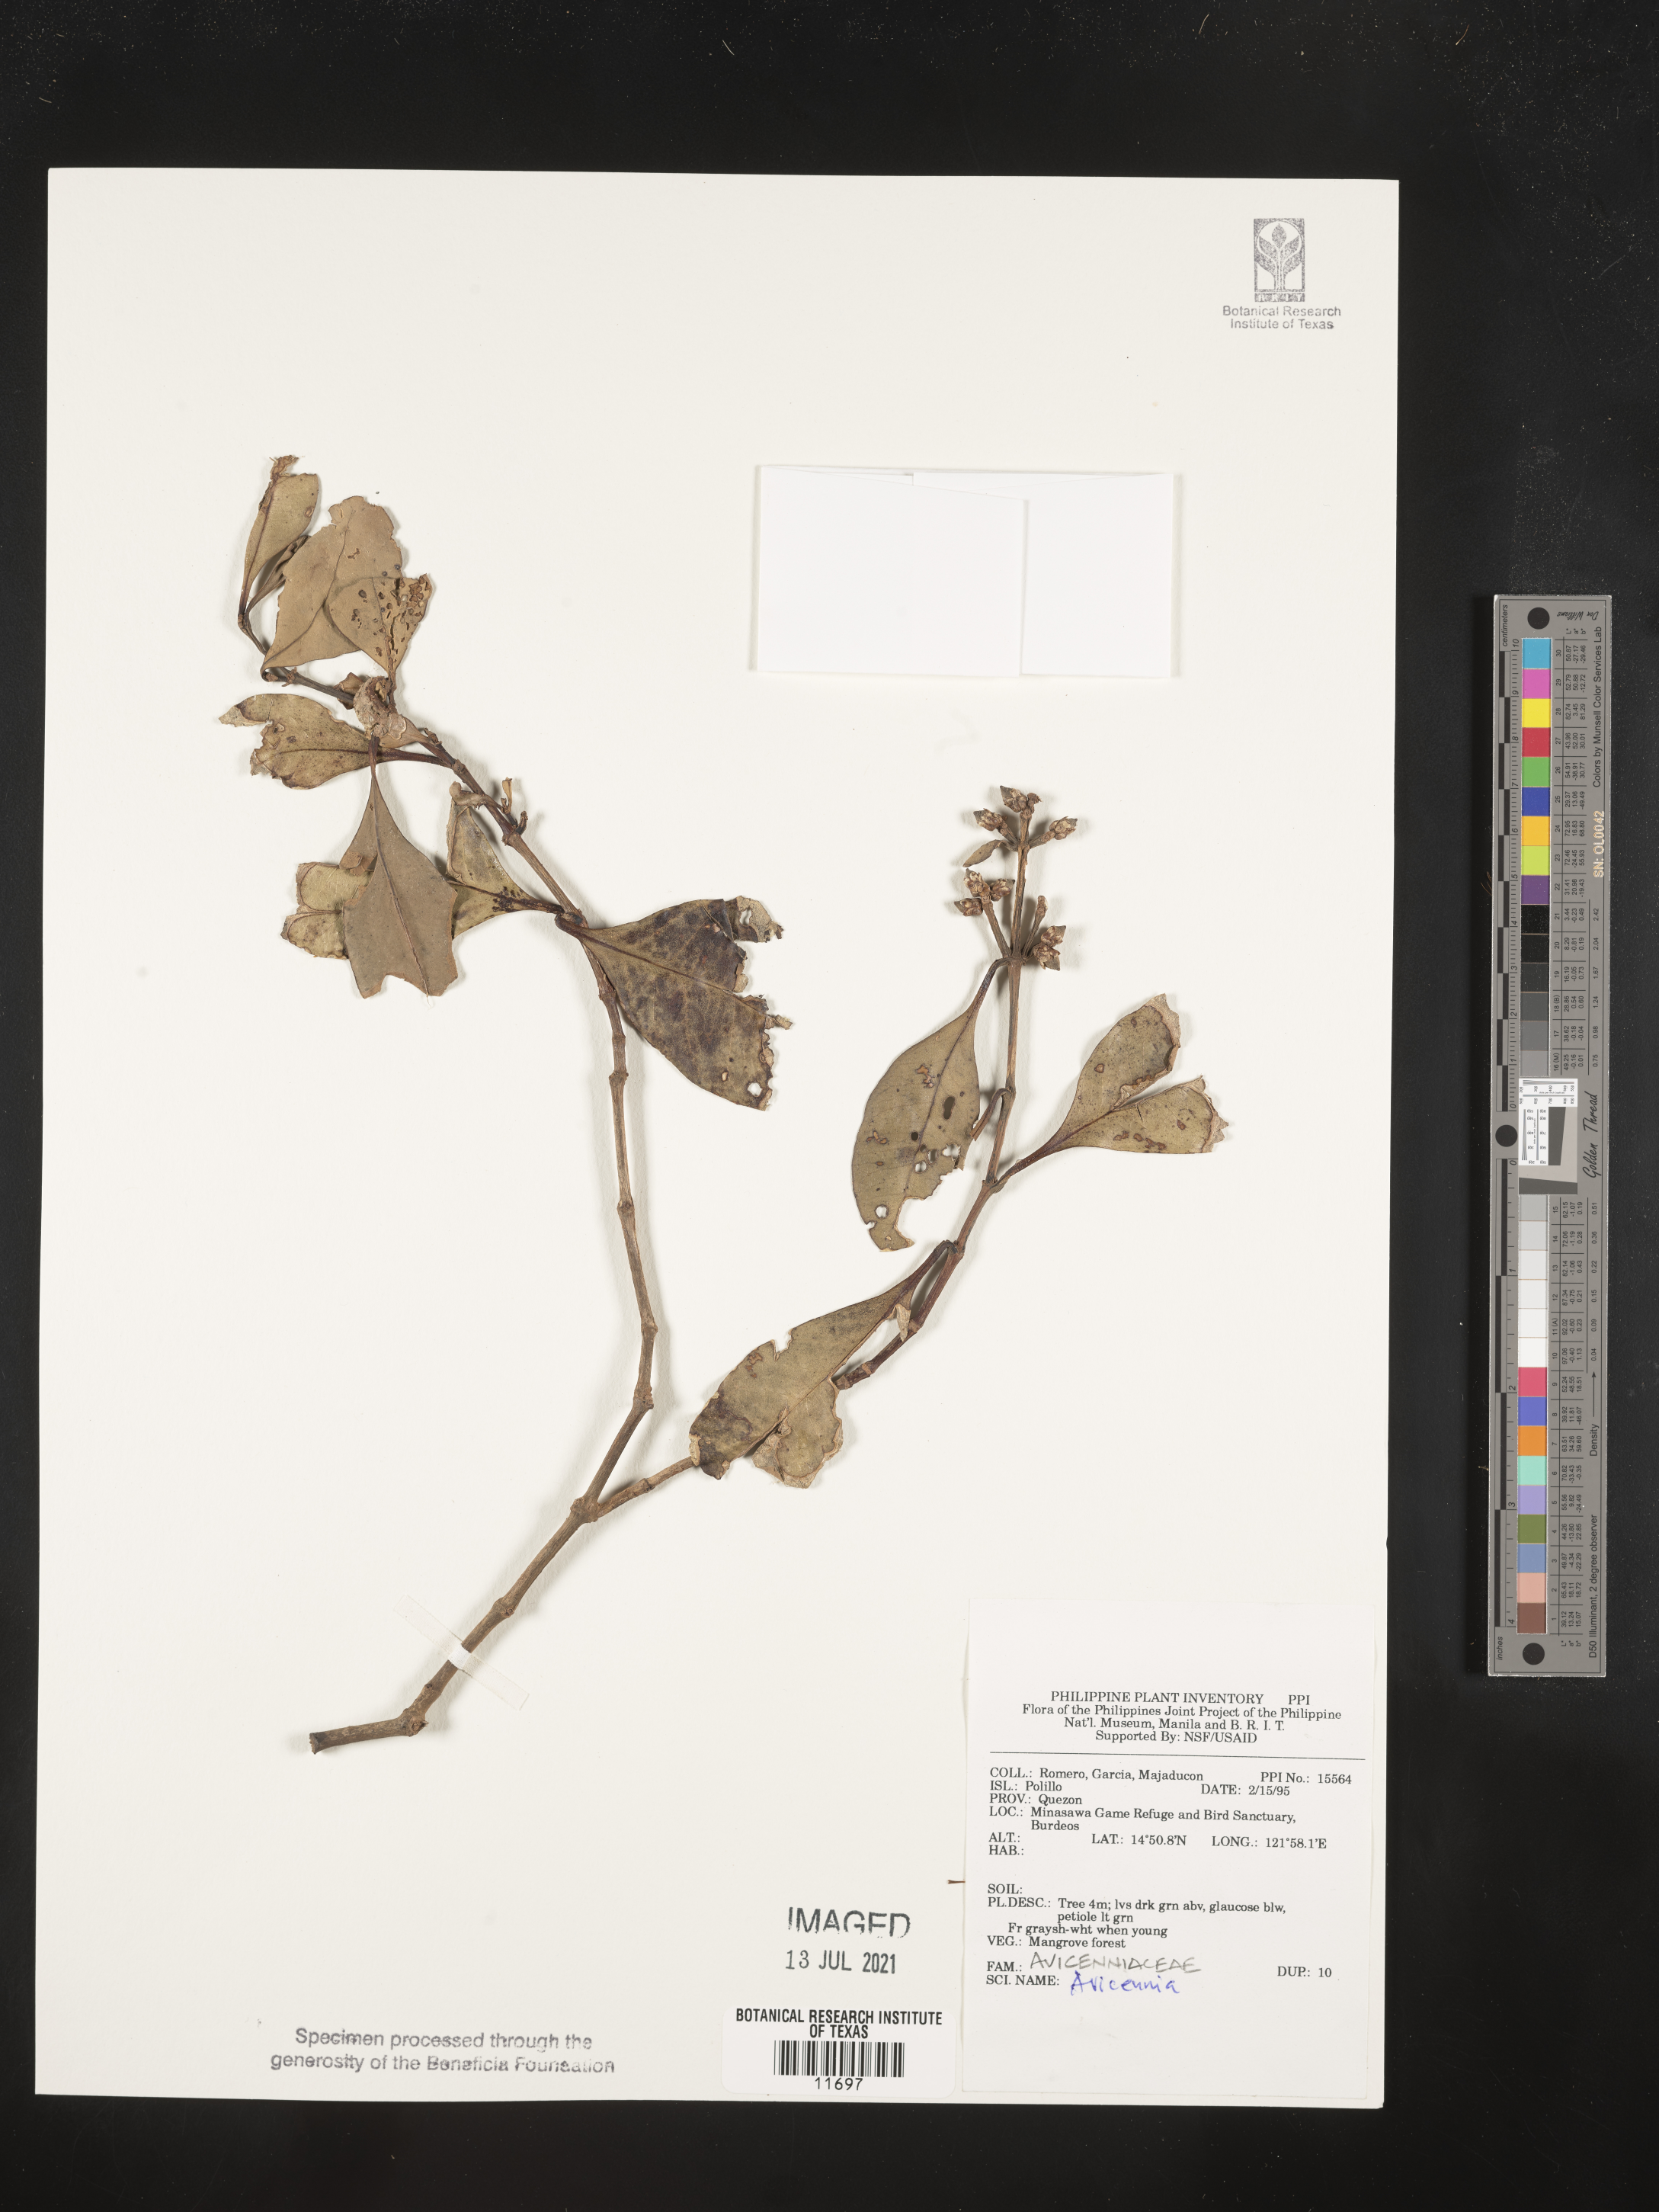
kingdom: Plantae
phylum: Tracheophyta
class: Magnoliopsida
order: Lamiales
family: Acanthaceae
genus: Avicennia
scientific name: Avicennia
